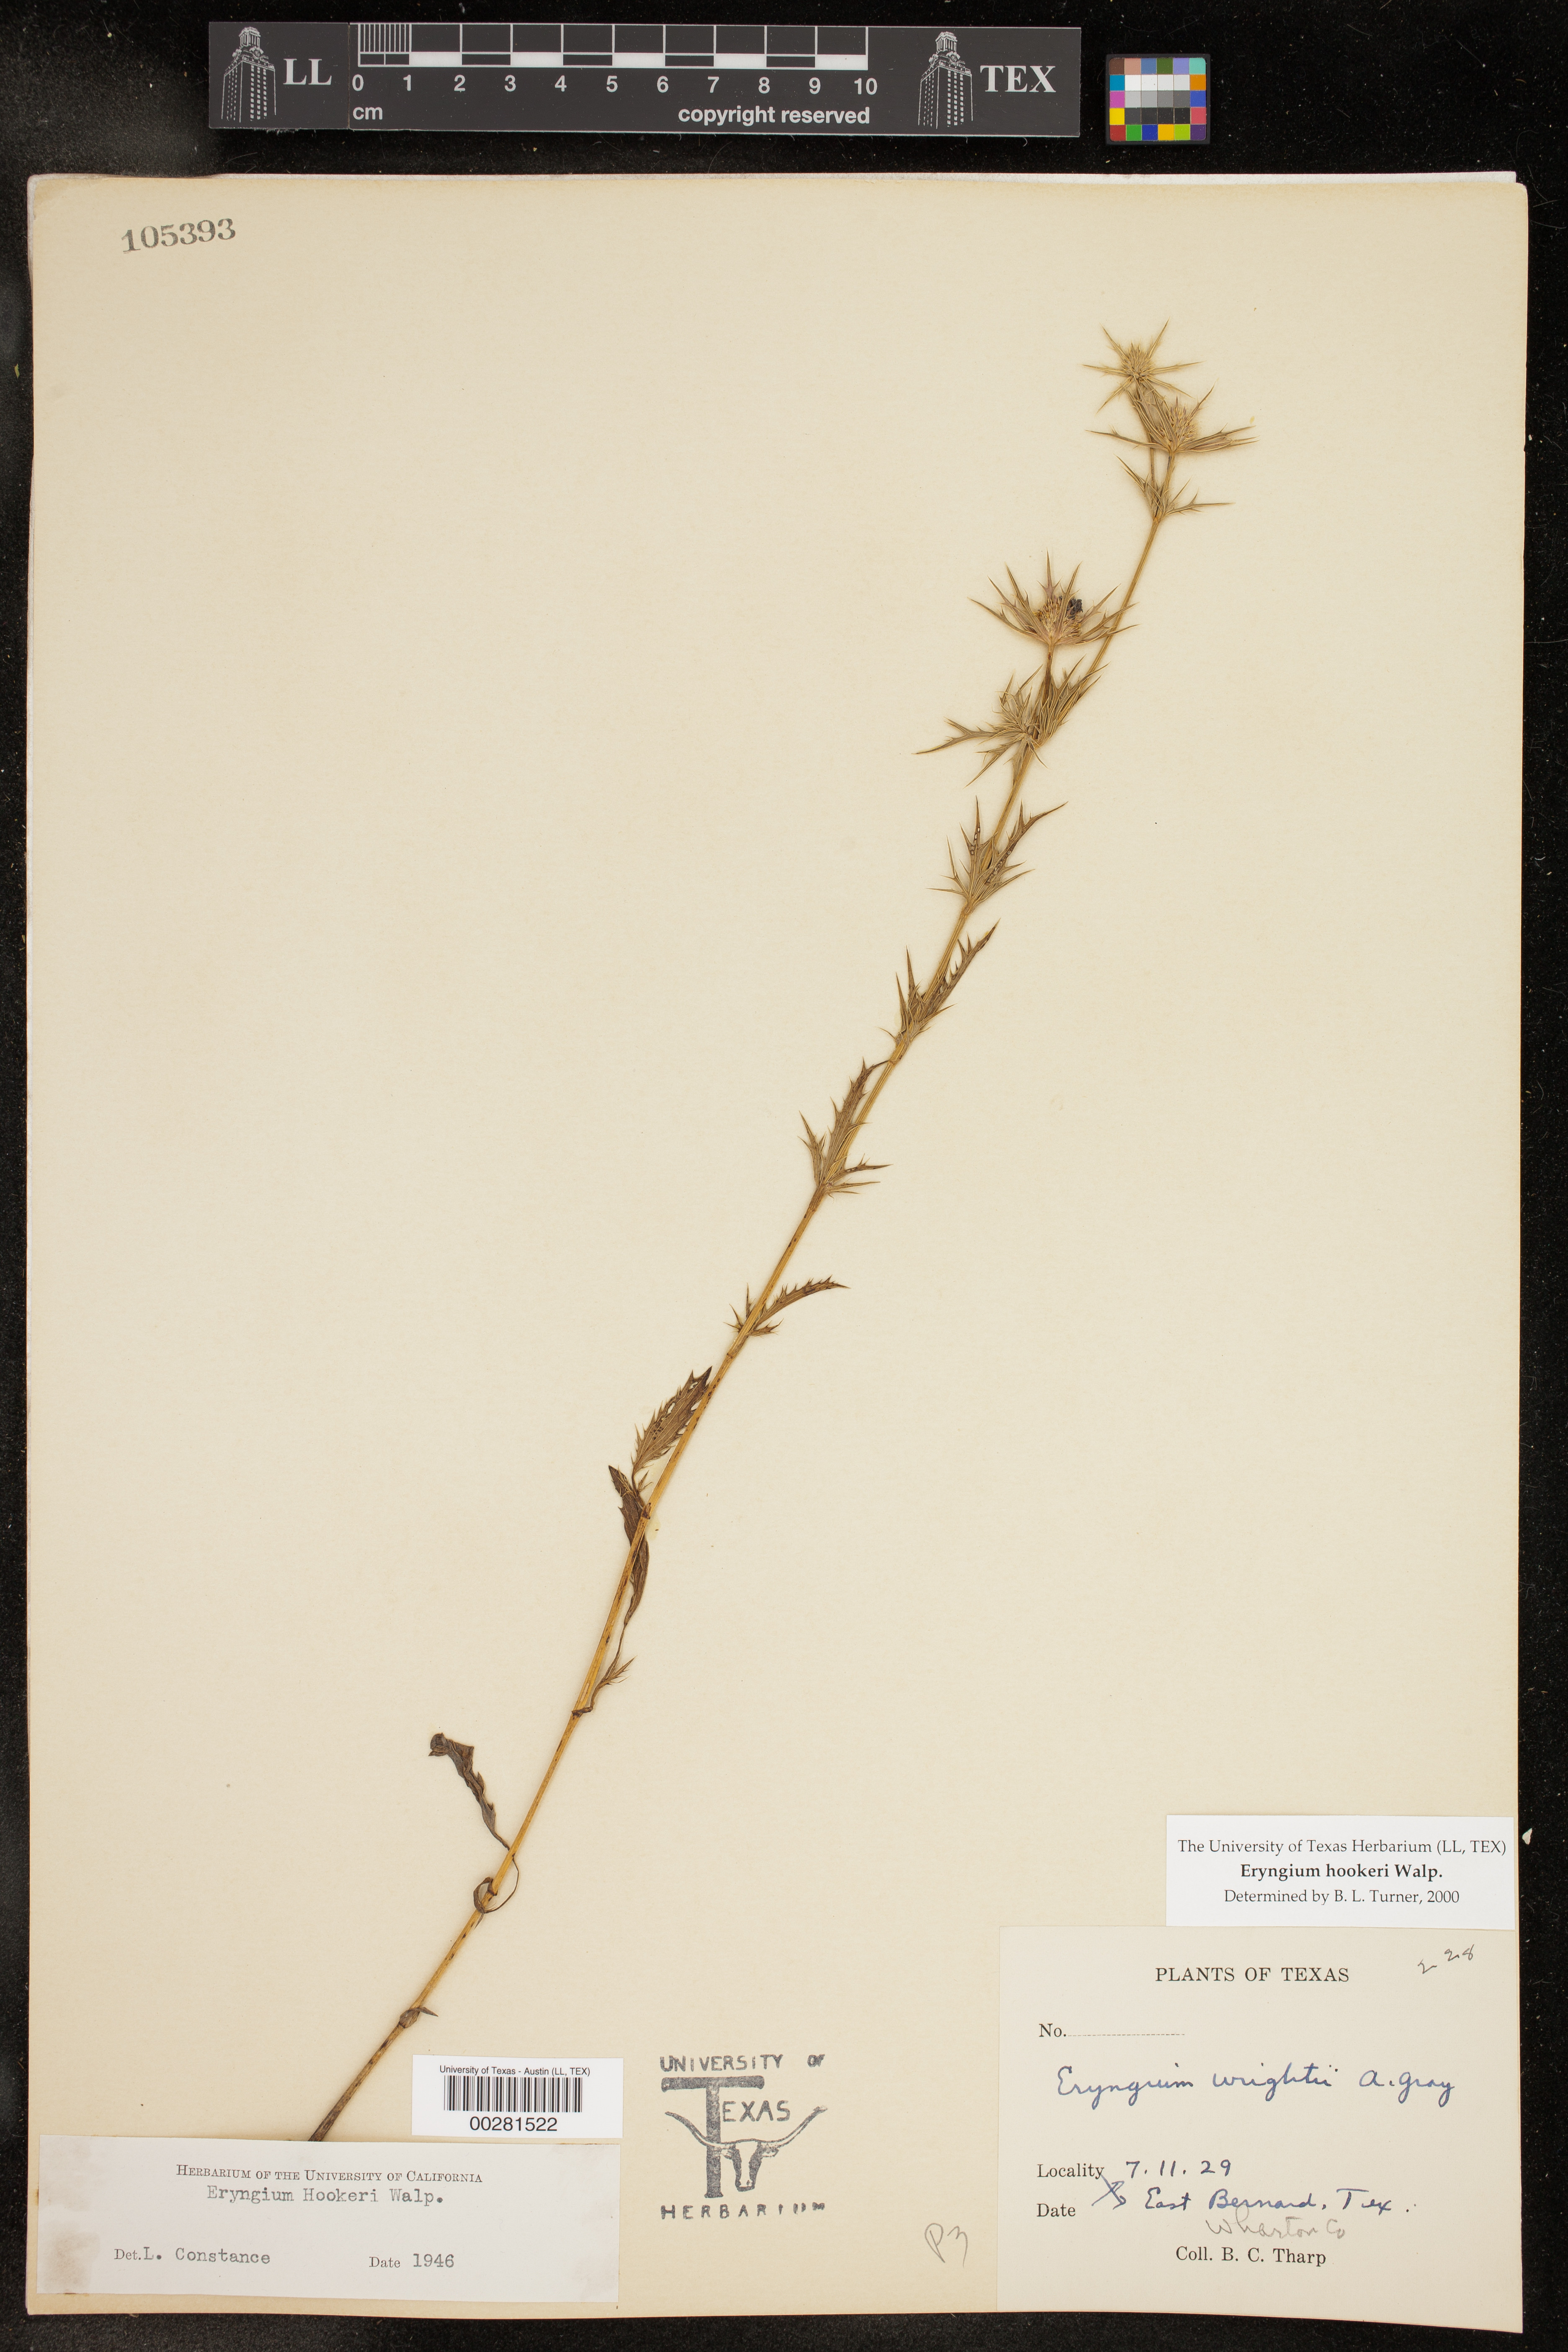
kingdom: Plantae
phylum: Tracheophyta
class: Magnoliopsida
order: Apiales
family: Apiaceae
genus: Eryngium
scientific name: Eryngium hookeri
